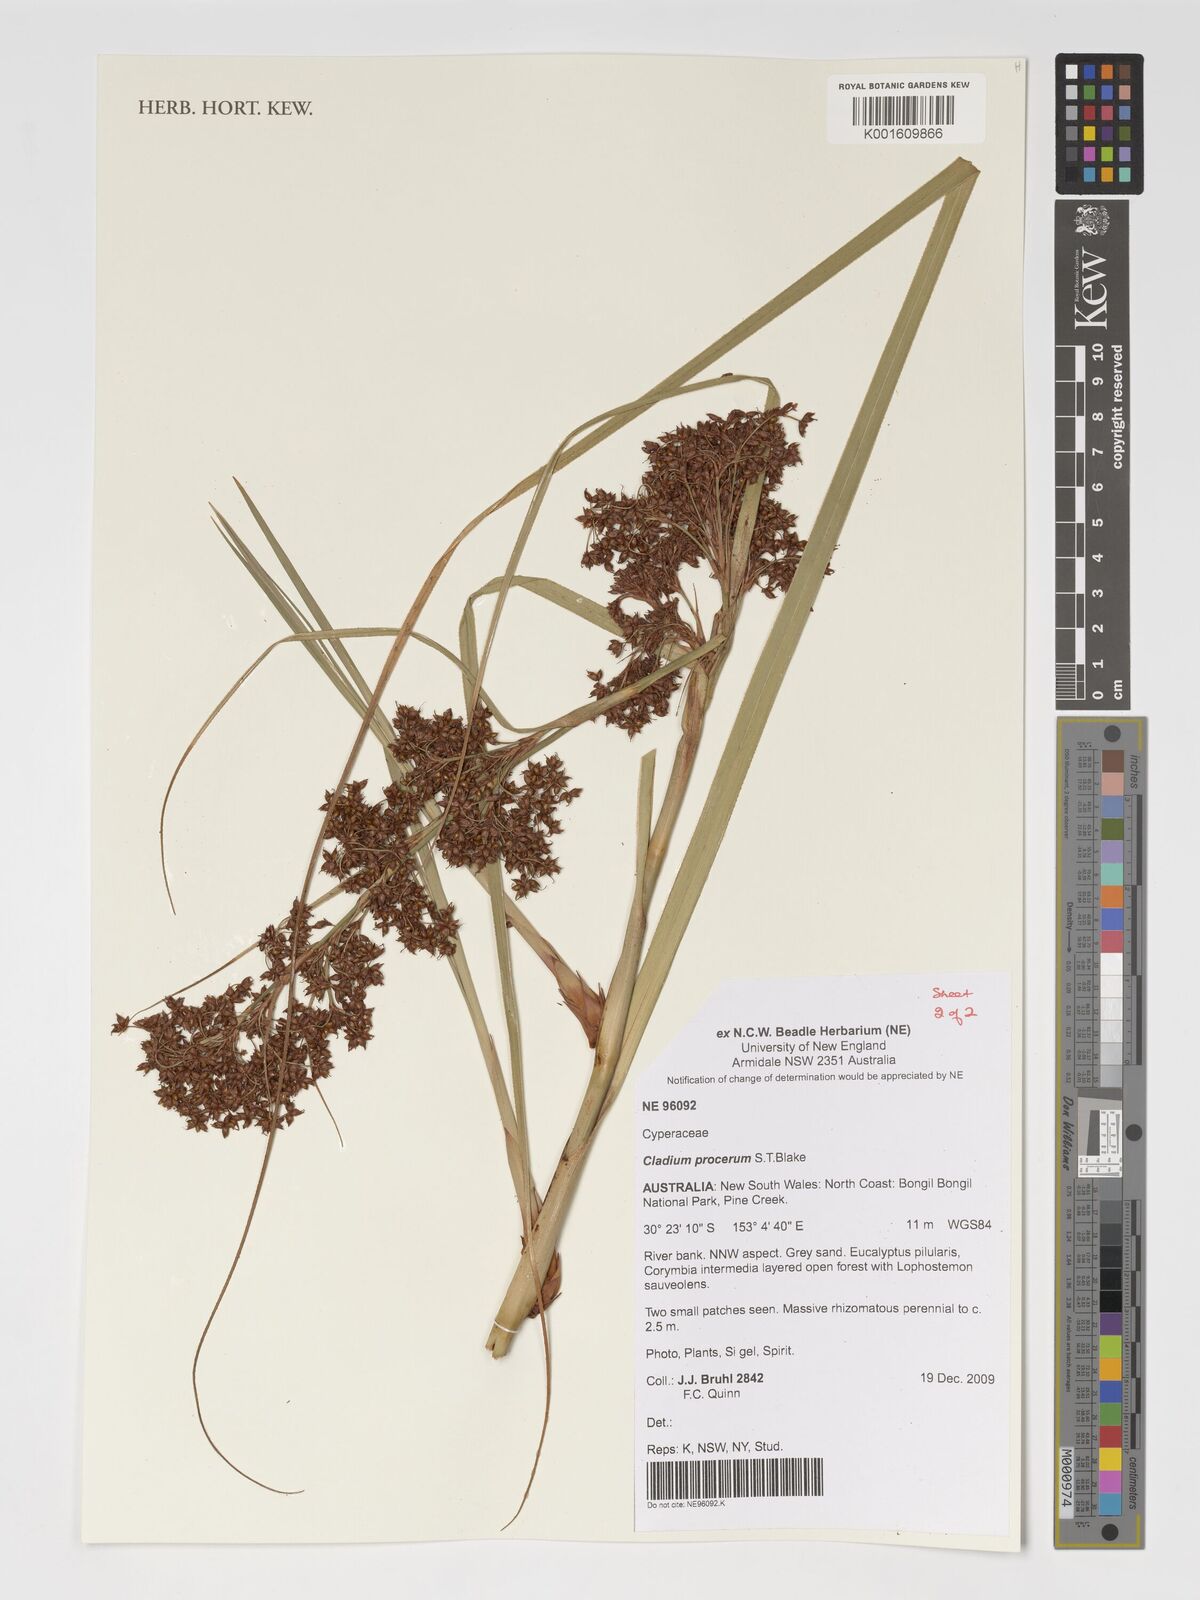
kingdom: Plantae
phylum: Tracheophyta
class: Liliopsida
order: Poales
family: Cyperaceae
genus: Cladium
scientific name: Cladium mariscus
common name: Great fen-sedge
